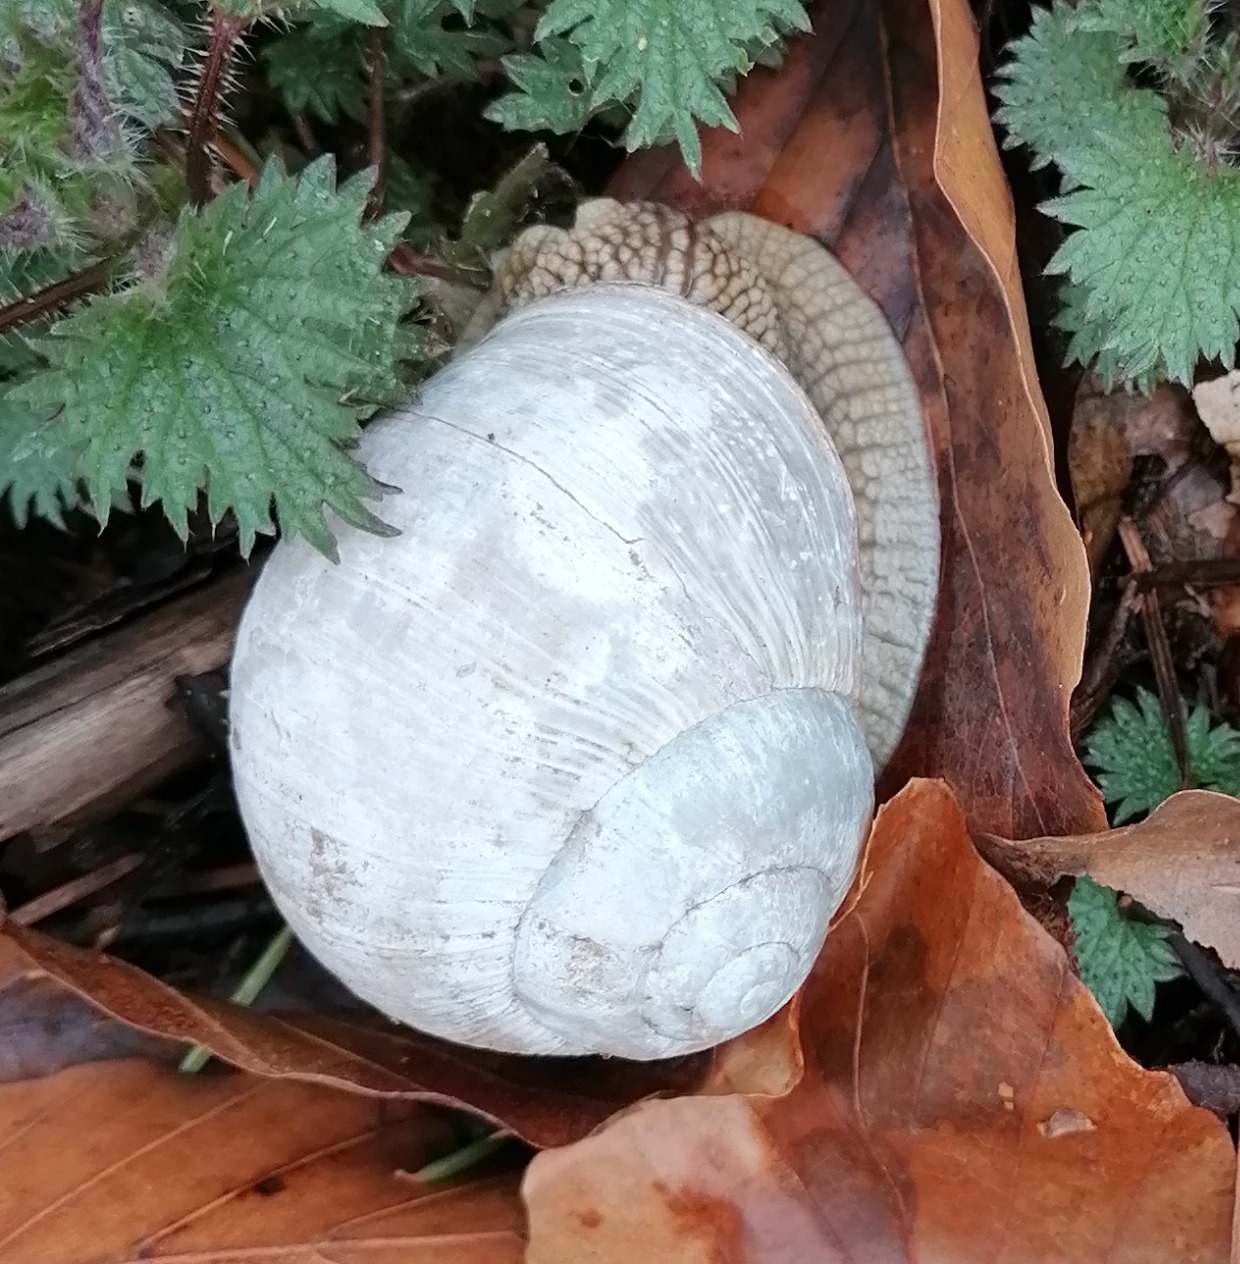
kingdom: Animalia
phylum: Mollusca
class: Gastropoda
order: Stylommatophora
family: Helicidae
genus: Helix
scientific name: Helix pomatia
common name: Vinbjergsnegl
